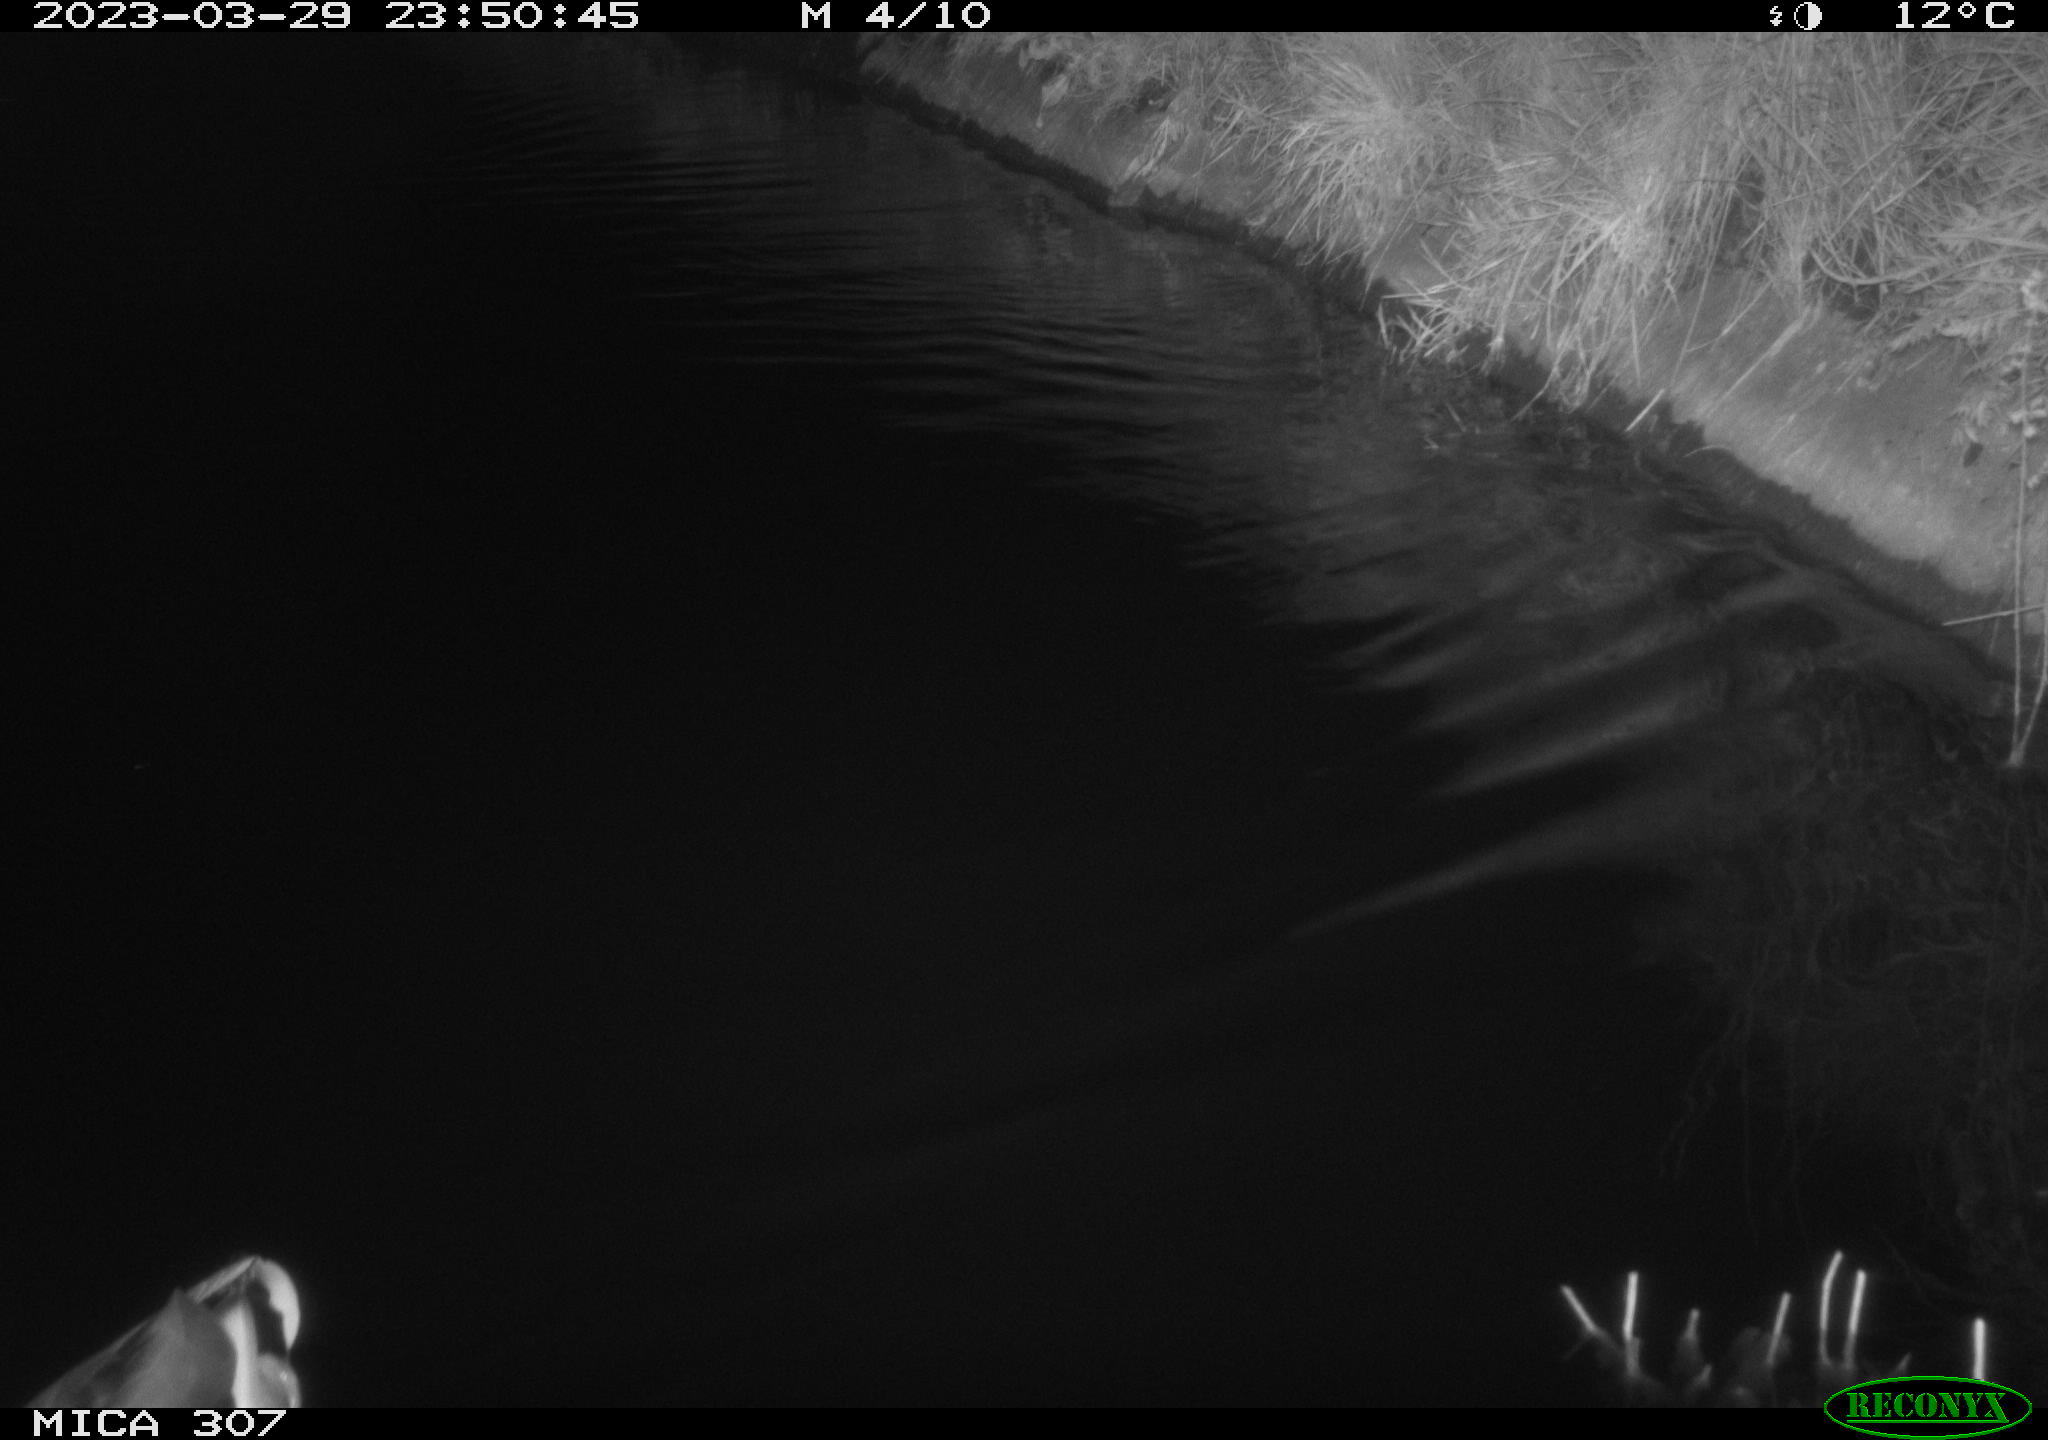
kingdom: Animalia
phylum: Chordata
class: Aves
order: Anseriformes
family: Anatidae
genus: Anas
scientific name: Anas
